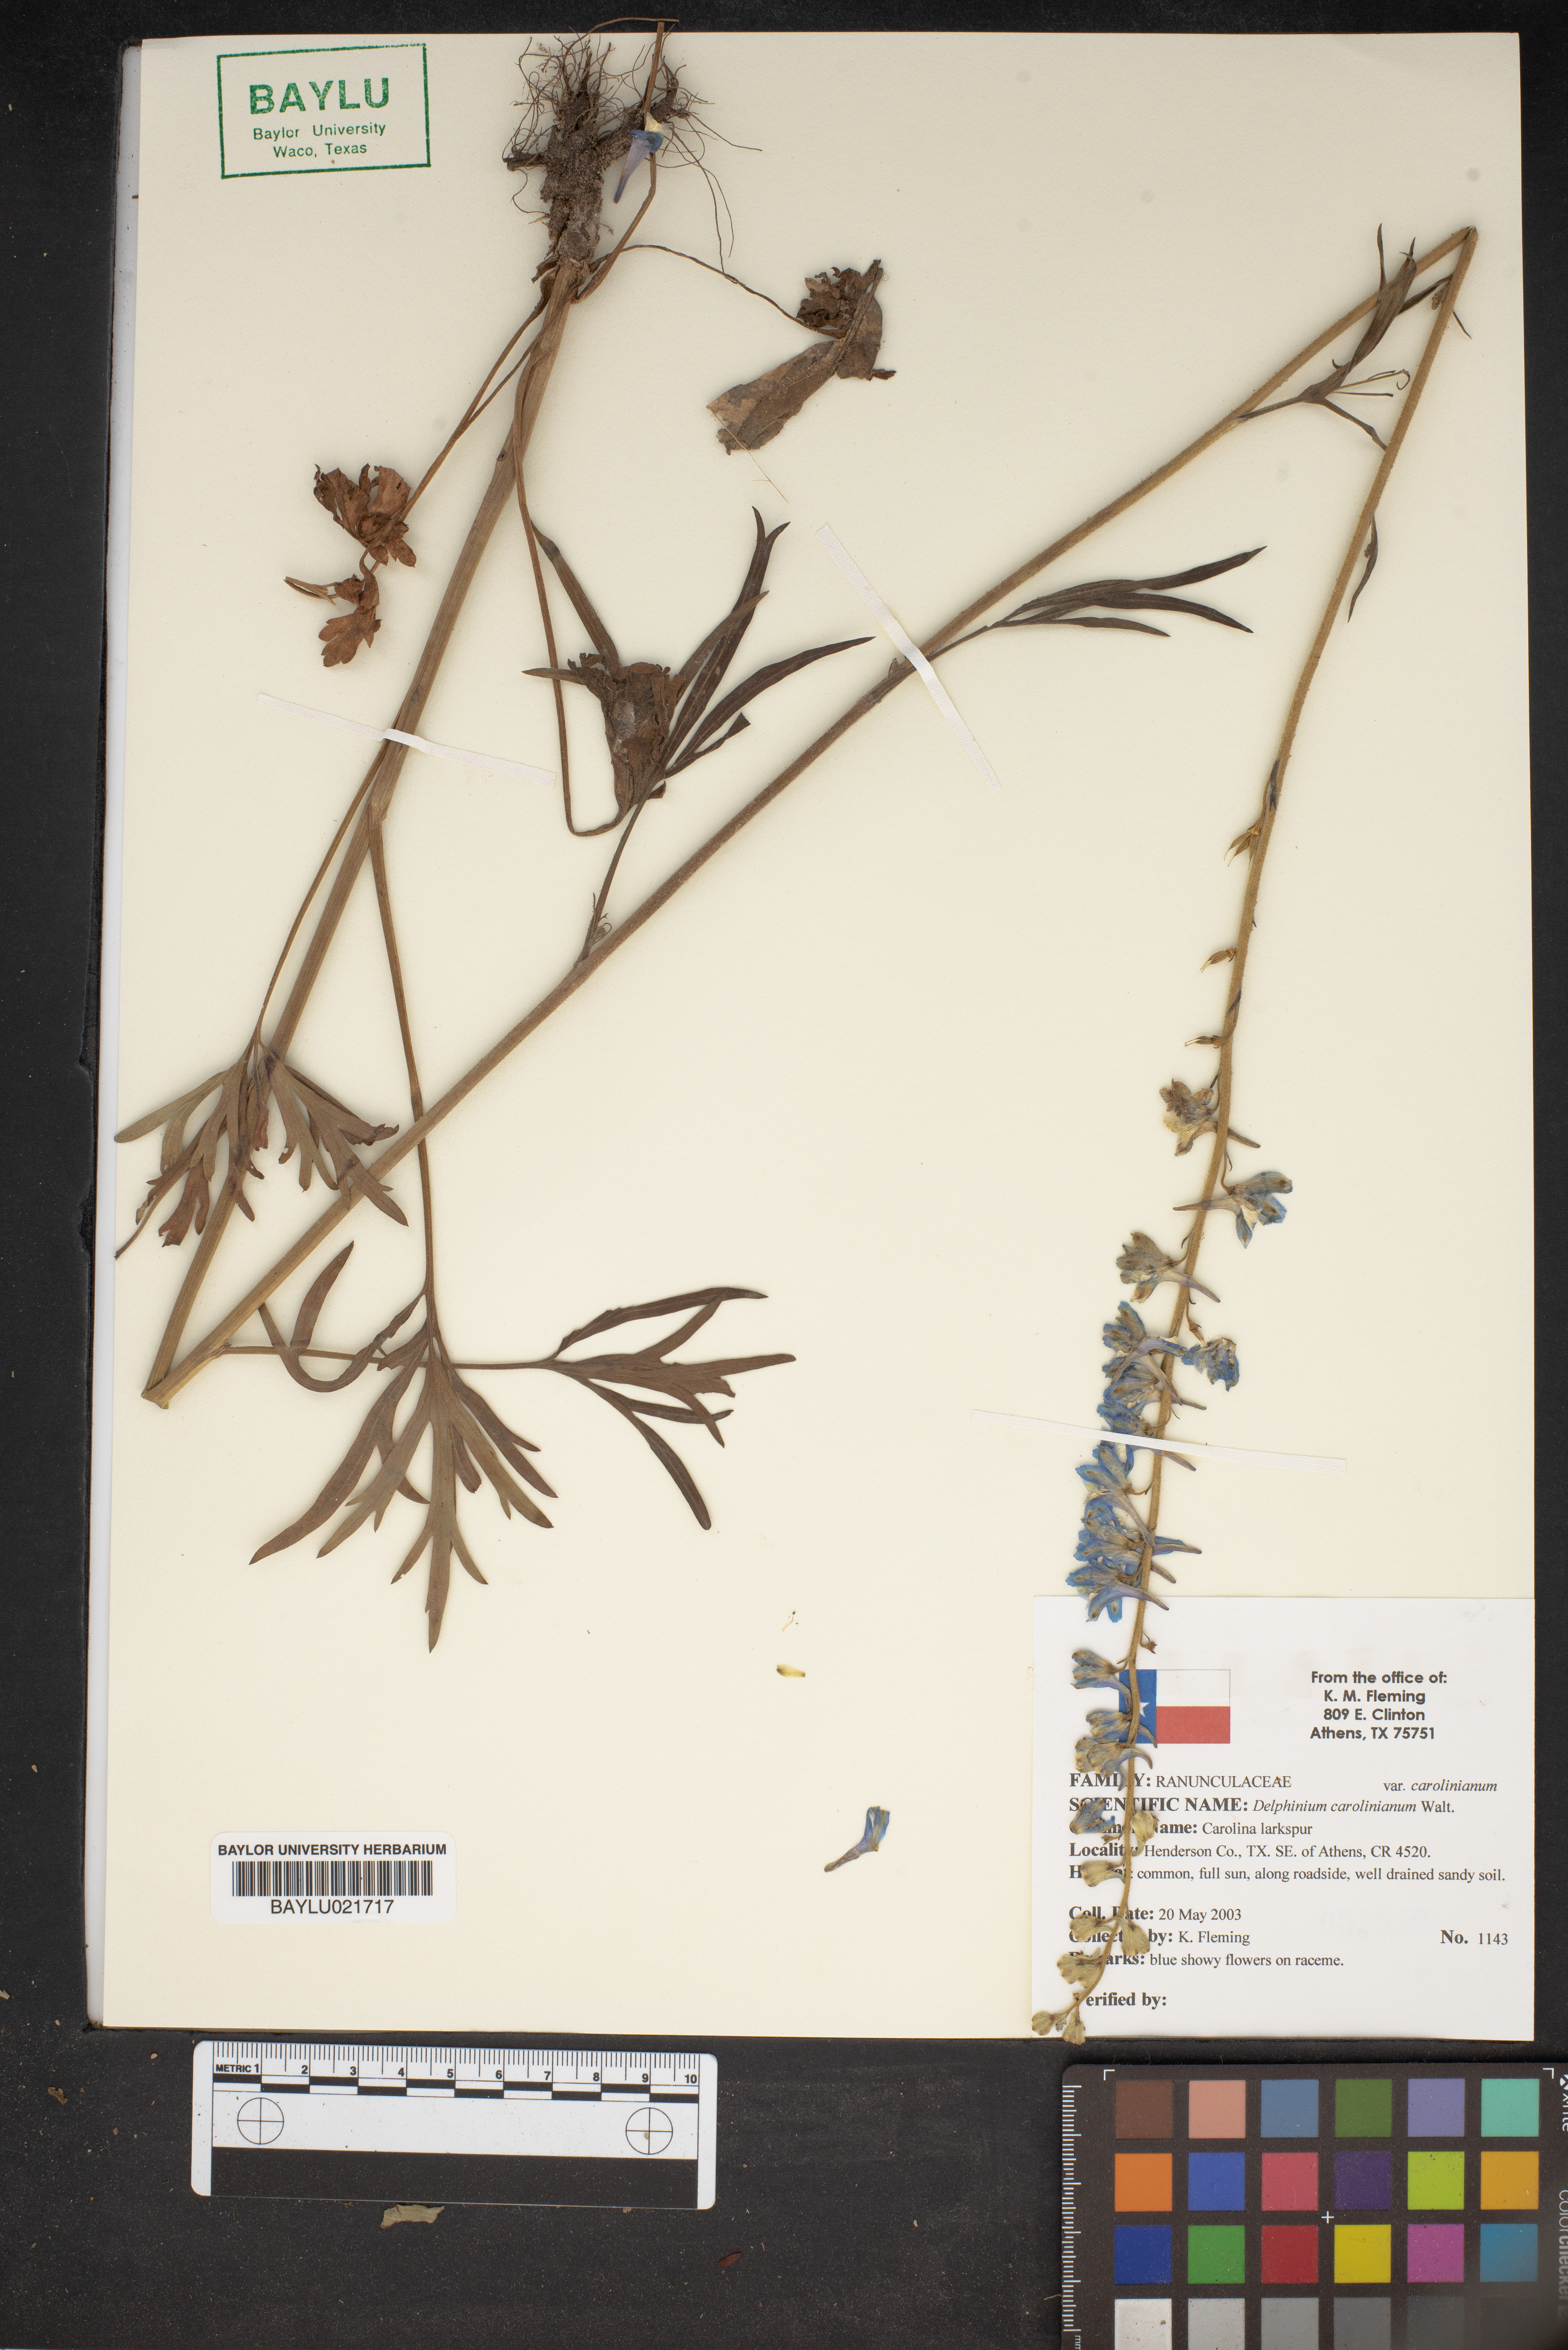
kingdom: Plantae
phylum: Tracheophyta
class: Magnoliopsida
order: Ranunculales
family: Ranunculaceae
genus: Delphinium
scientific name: Delphinium carolinianum
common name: Carolina larkspur
